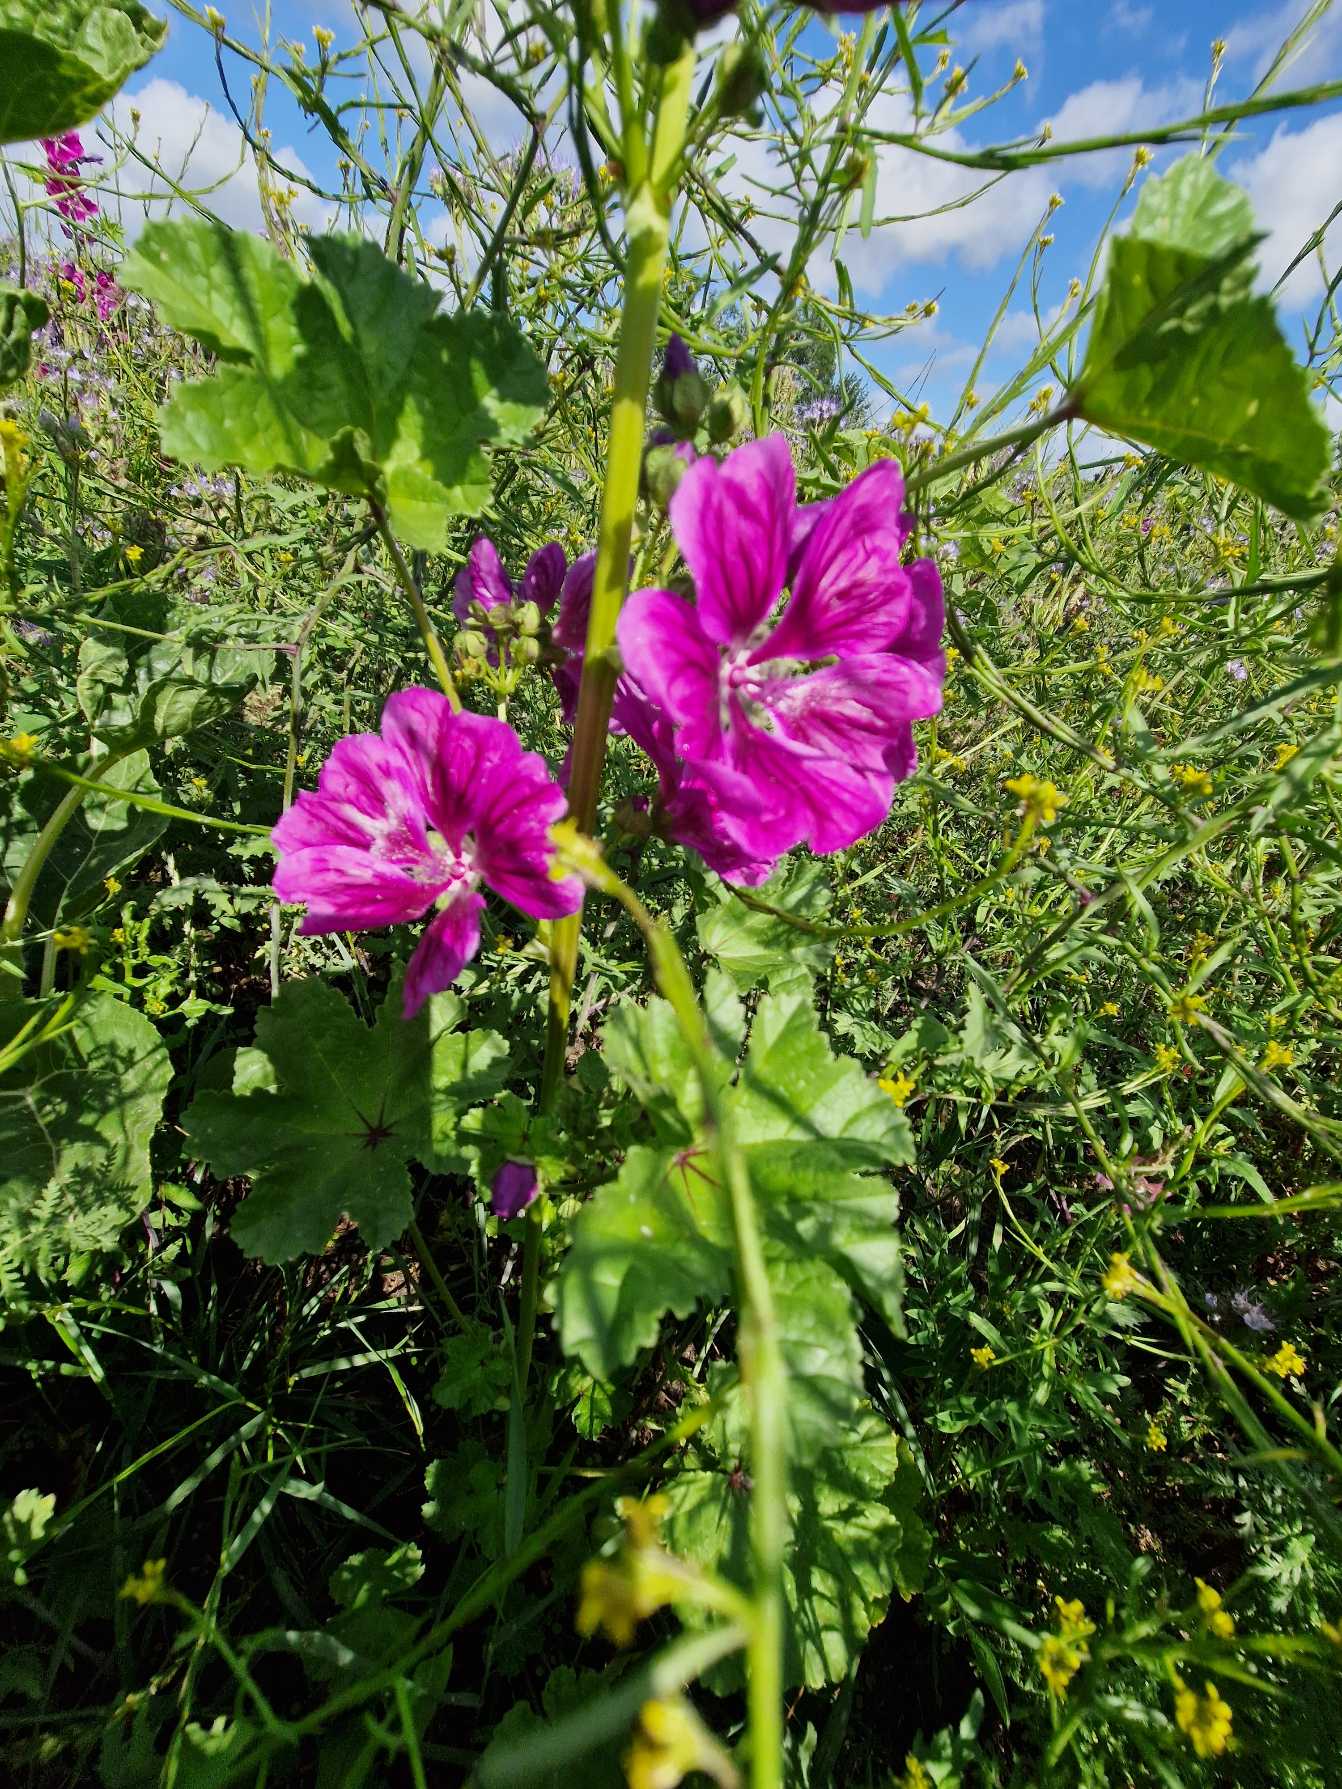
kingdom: Plantae
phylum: Tracheophyta
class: Magnoliopsida
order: Malvales
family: Malvaceae
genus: Malva
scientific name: Malva sylvestris
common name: Stor katost
